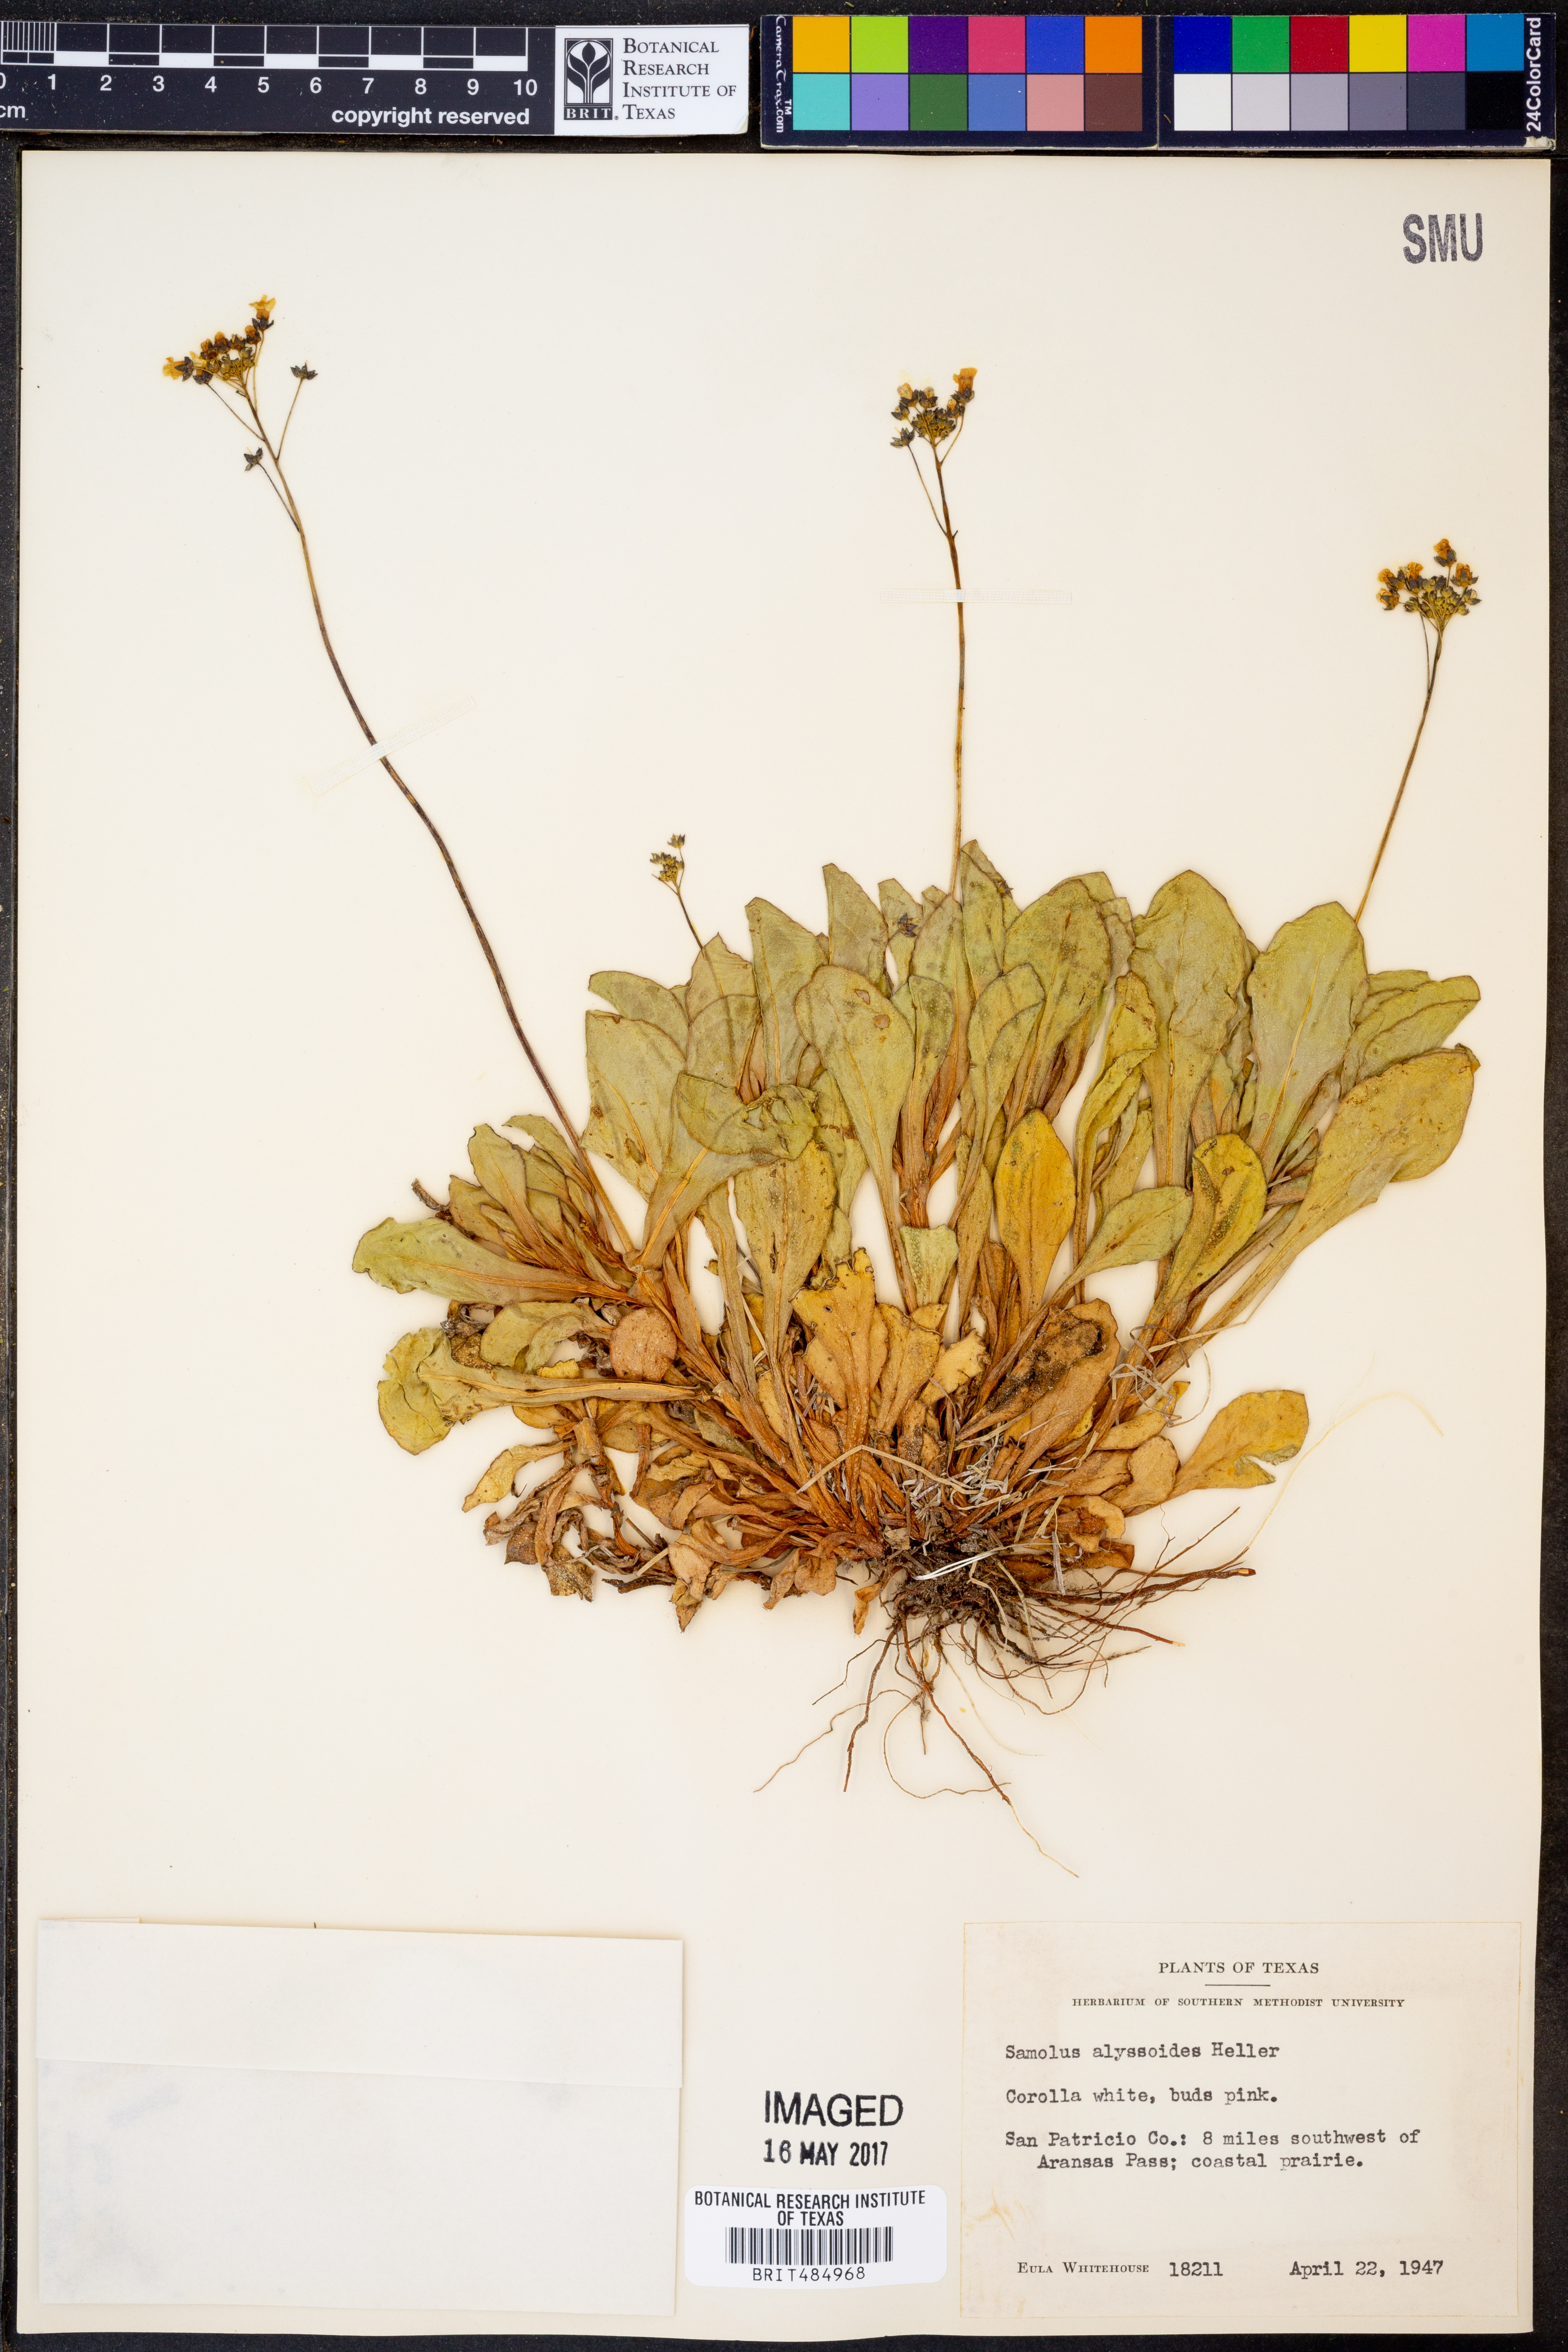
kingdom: Plantae
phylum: Tracheophyta
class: Magnoliopsida
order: Ericales
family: Primulaceae
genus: Samolus
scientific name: Samolus ebracteatus
